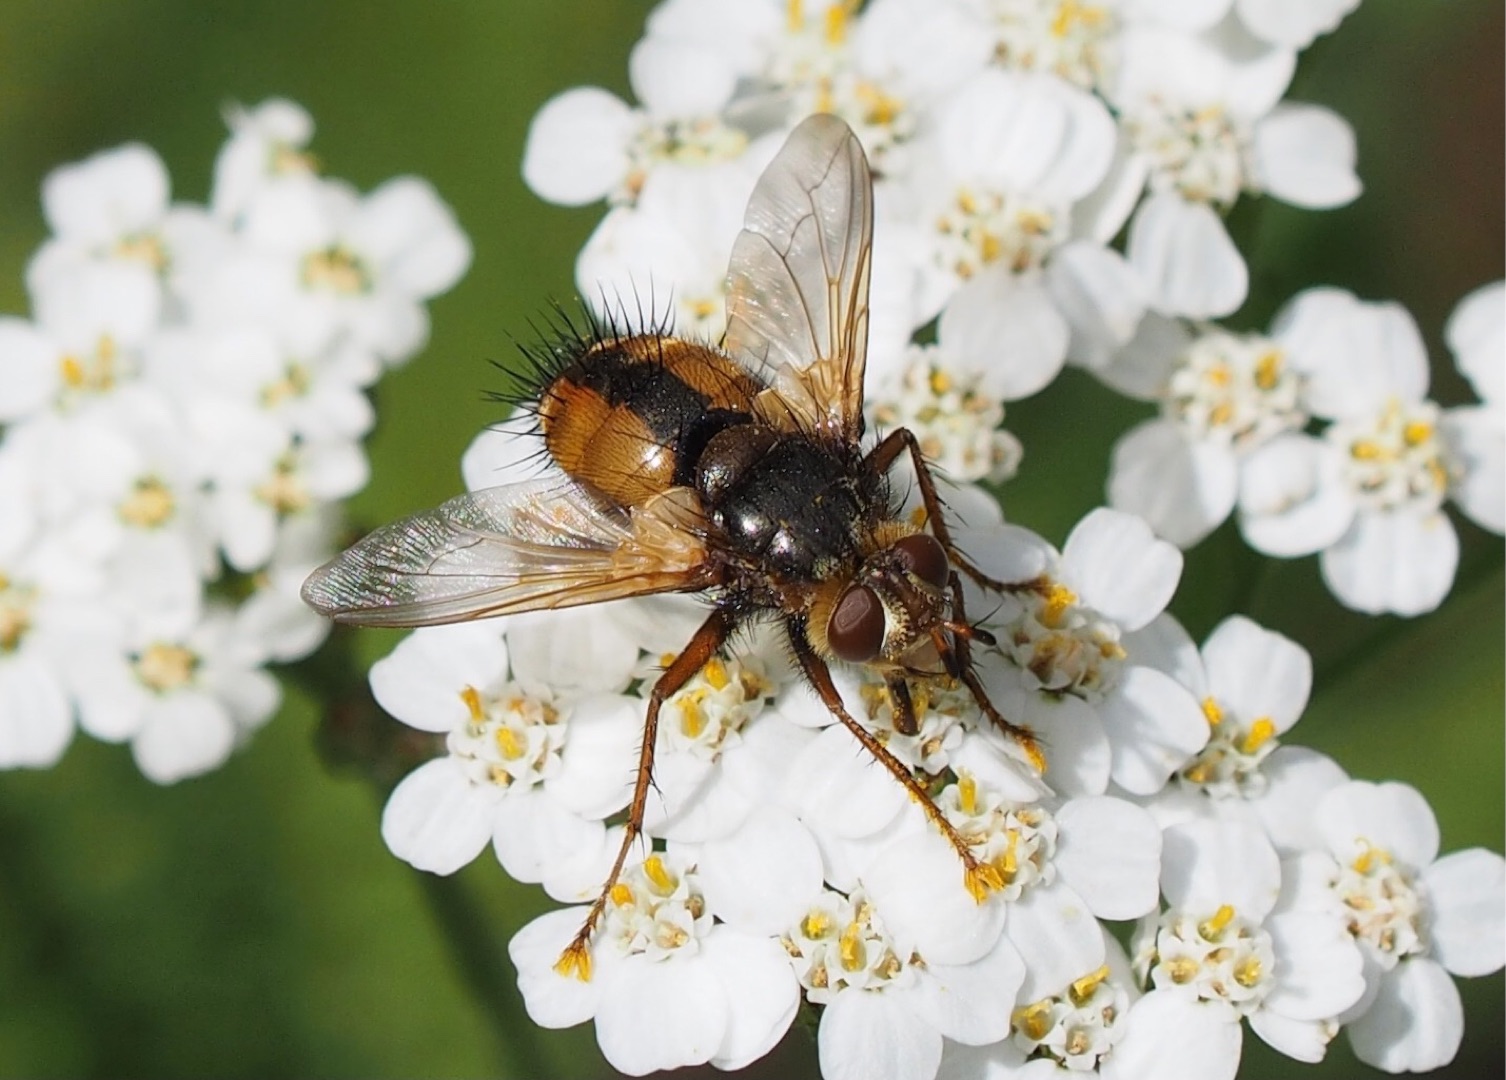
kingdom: Animalia
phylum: Arthropoda
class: Insecta
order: Diptera
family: Tachinidae
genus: Tachina
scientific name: Tachina fera
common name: Mellemfluen oskar
